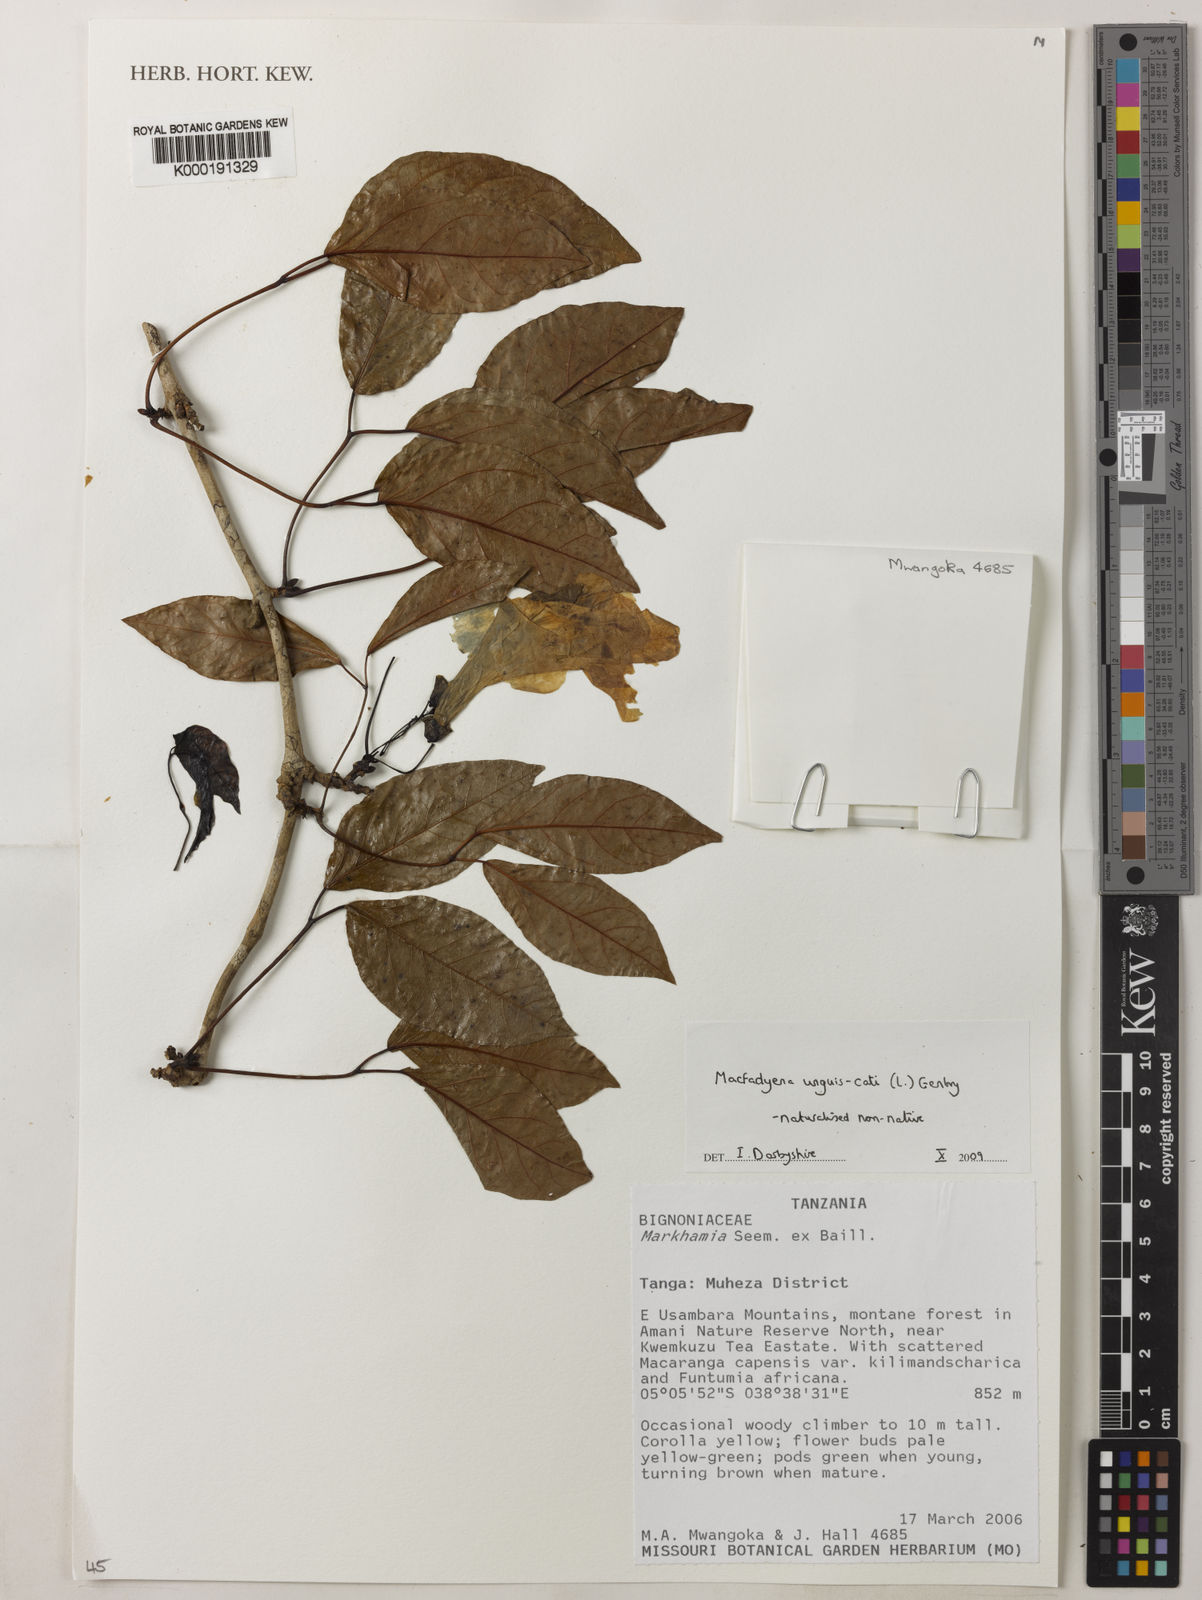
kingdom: Plantae
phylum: Tracheophyta
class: Magnoliopsida
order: Lamiales
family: Bignoniaceae
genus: Dolichandra
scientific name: Dolichandra unguis-cati
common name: Catclaw vine
